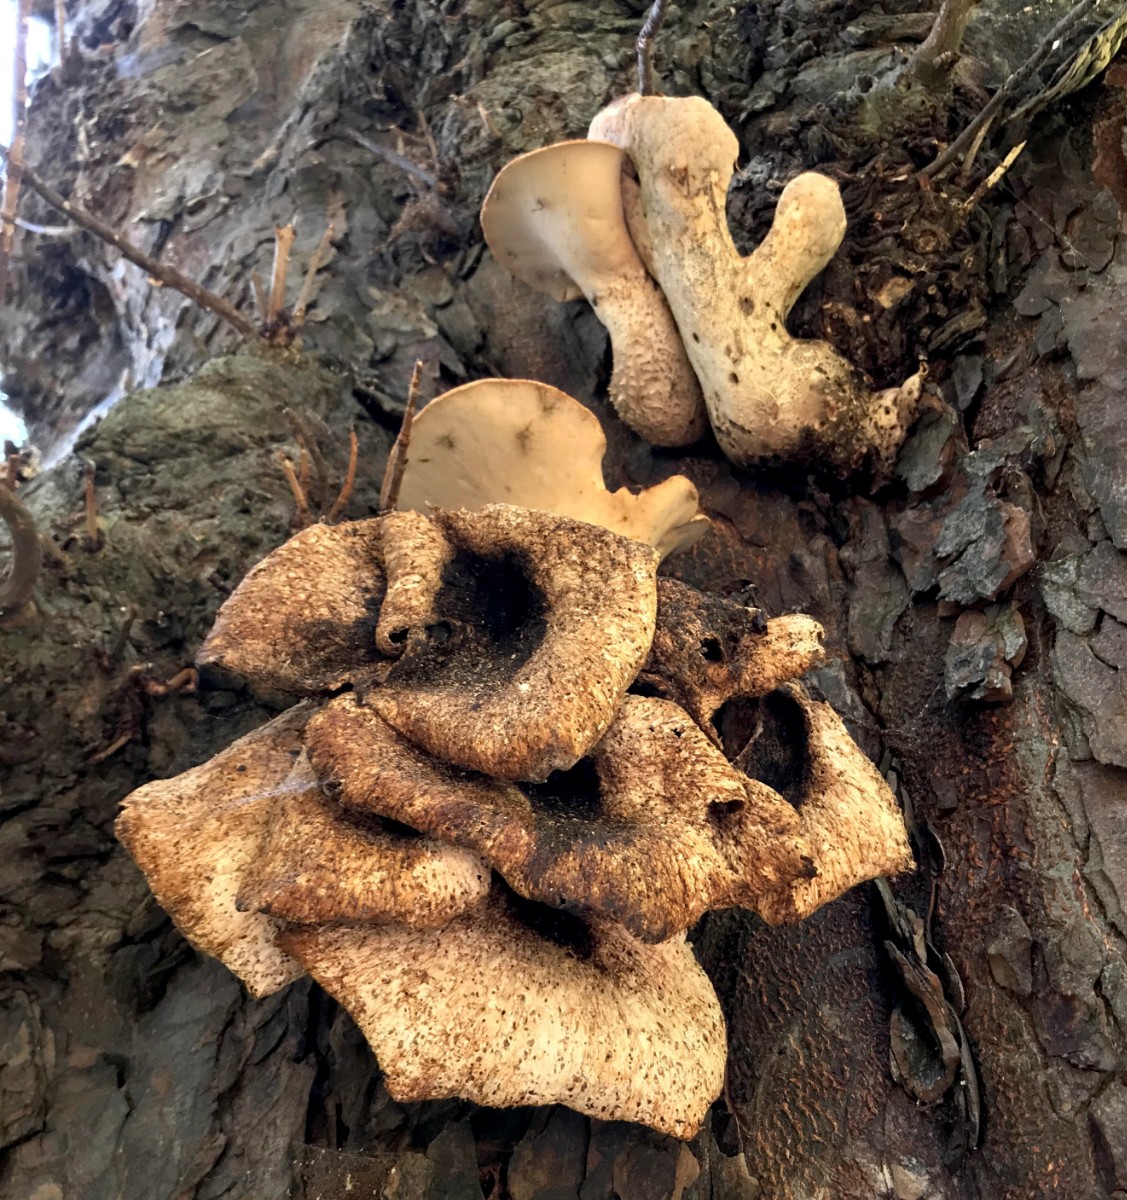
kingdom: Fungi
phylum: Basidiomycota
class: Agaricomycetes
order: Polyporales
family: Polyporaceae
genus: Cerioporus
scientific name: Cerioporus squamosus
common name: skællet stilkporesvamp
